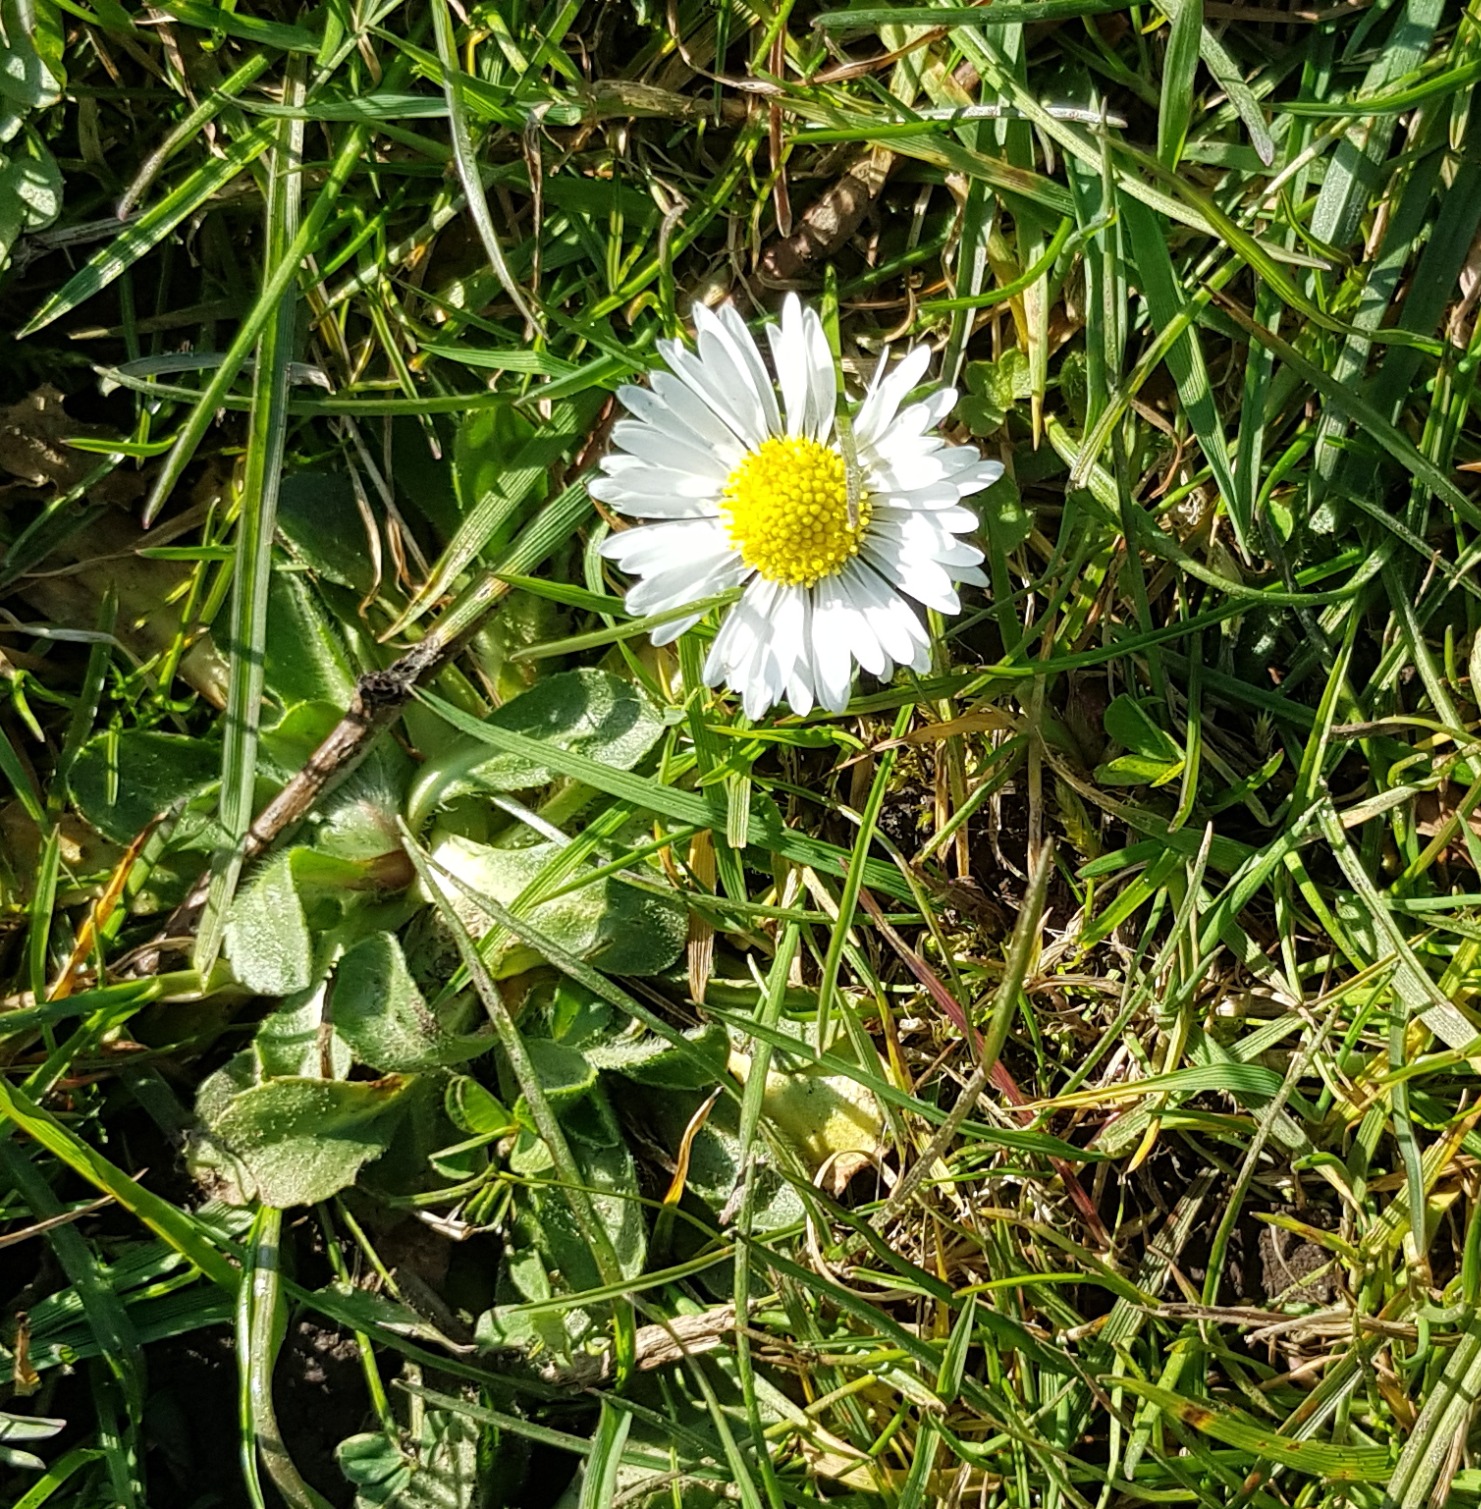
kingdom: Plantae
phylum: Tracheophyta
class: Magnoliopsida
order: Asterales
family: Asteraceae
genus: Bellis
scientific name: Bellis perennis
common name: Tusindfryd
